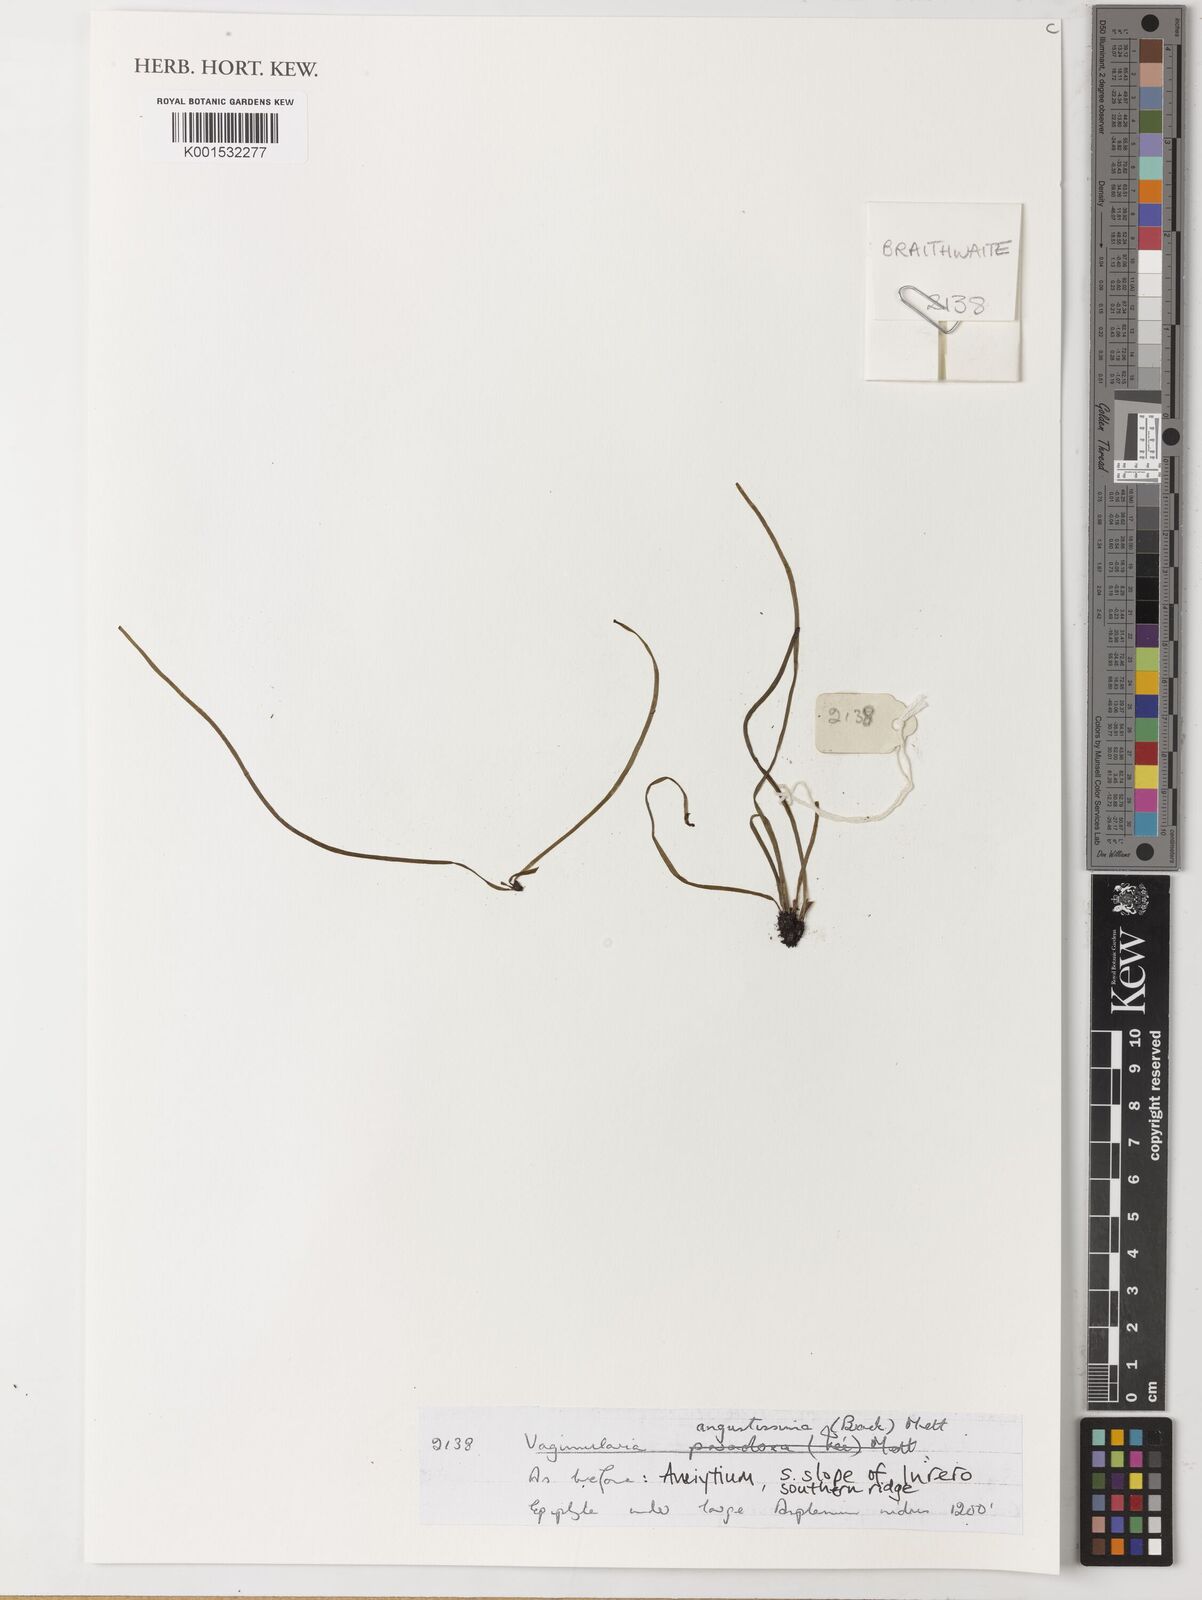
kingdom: Plantae
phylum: Tracheophyta
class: Polypodiopsida
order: Polypodiales
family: Pteridaceae
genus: Vaginularia
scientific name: Vaginularia junghuhnii
